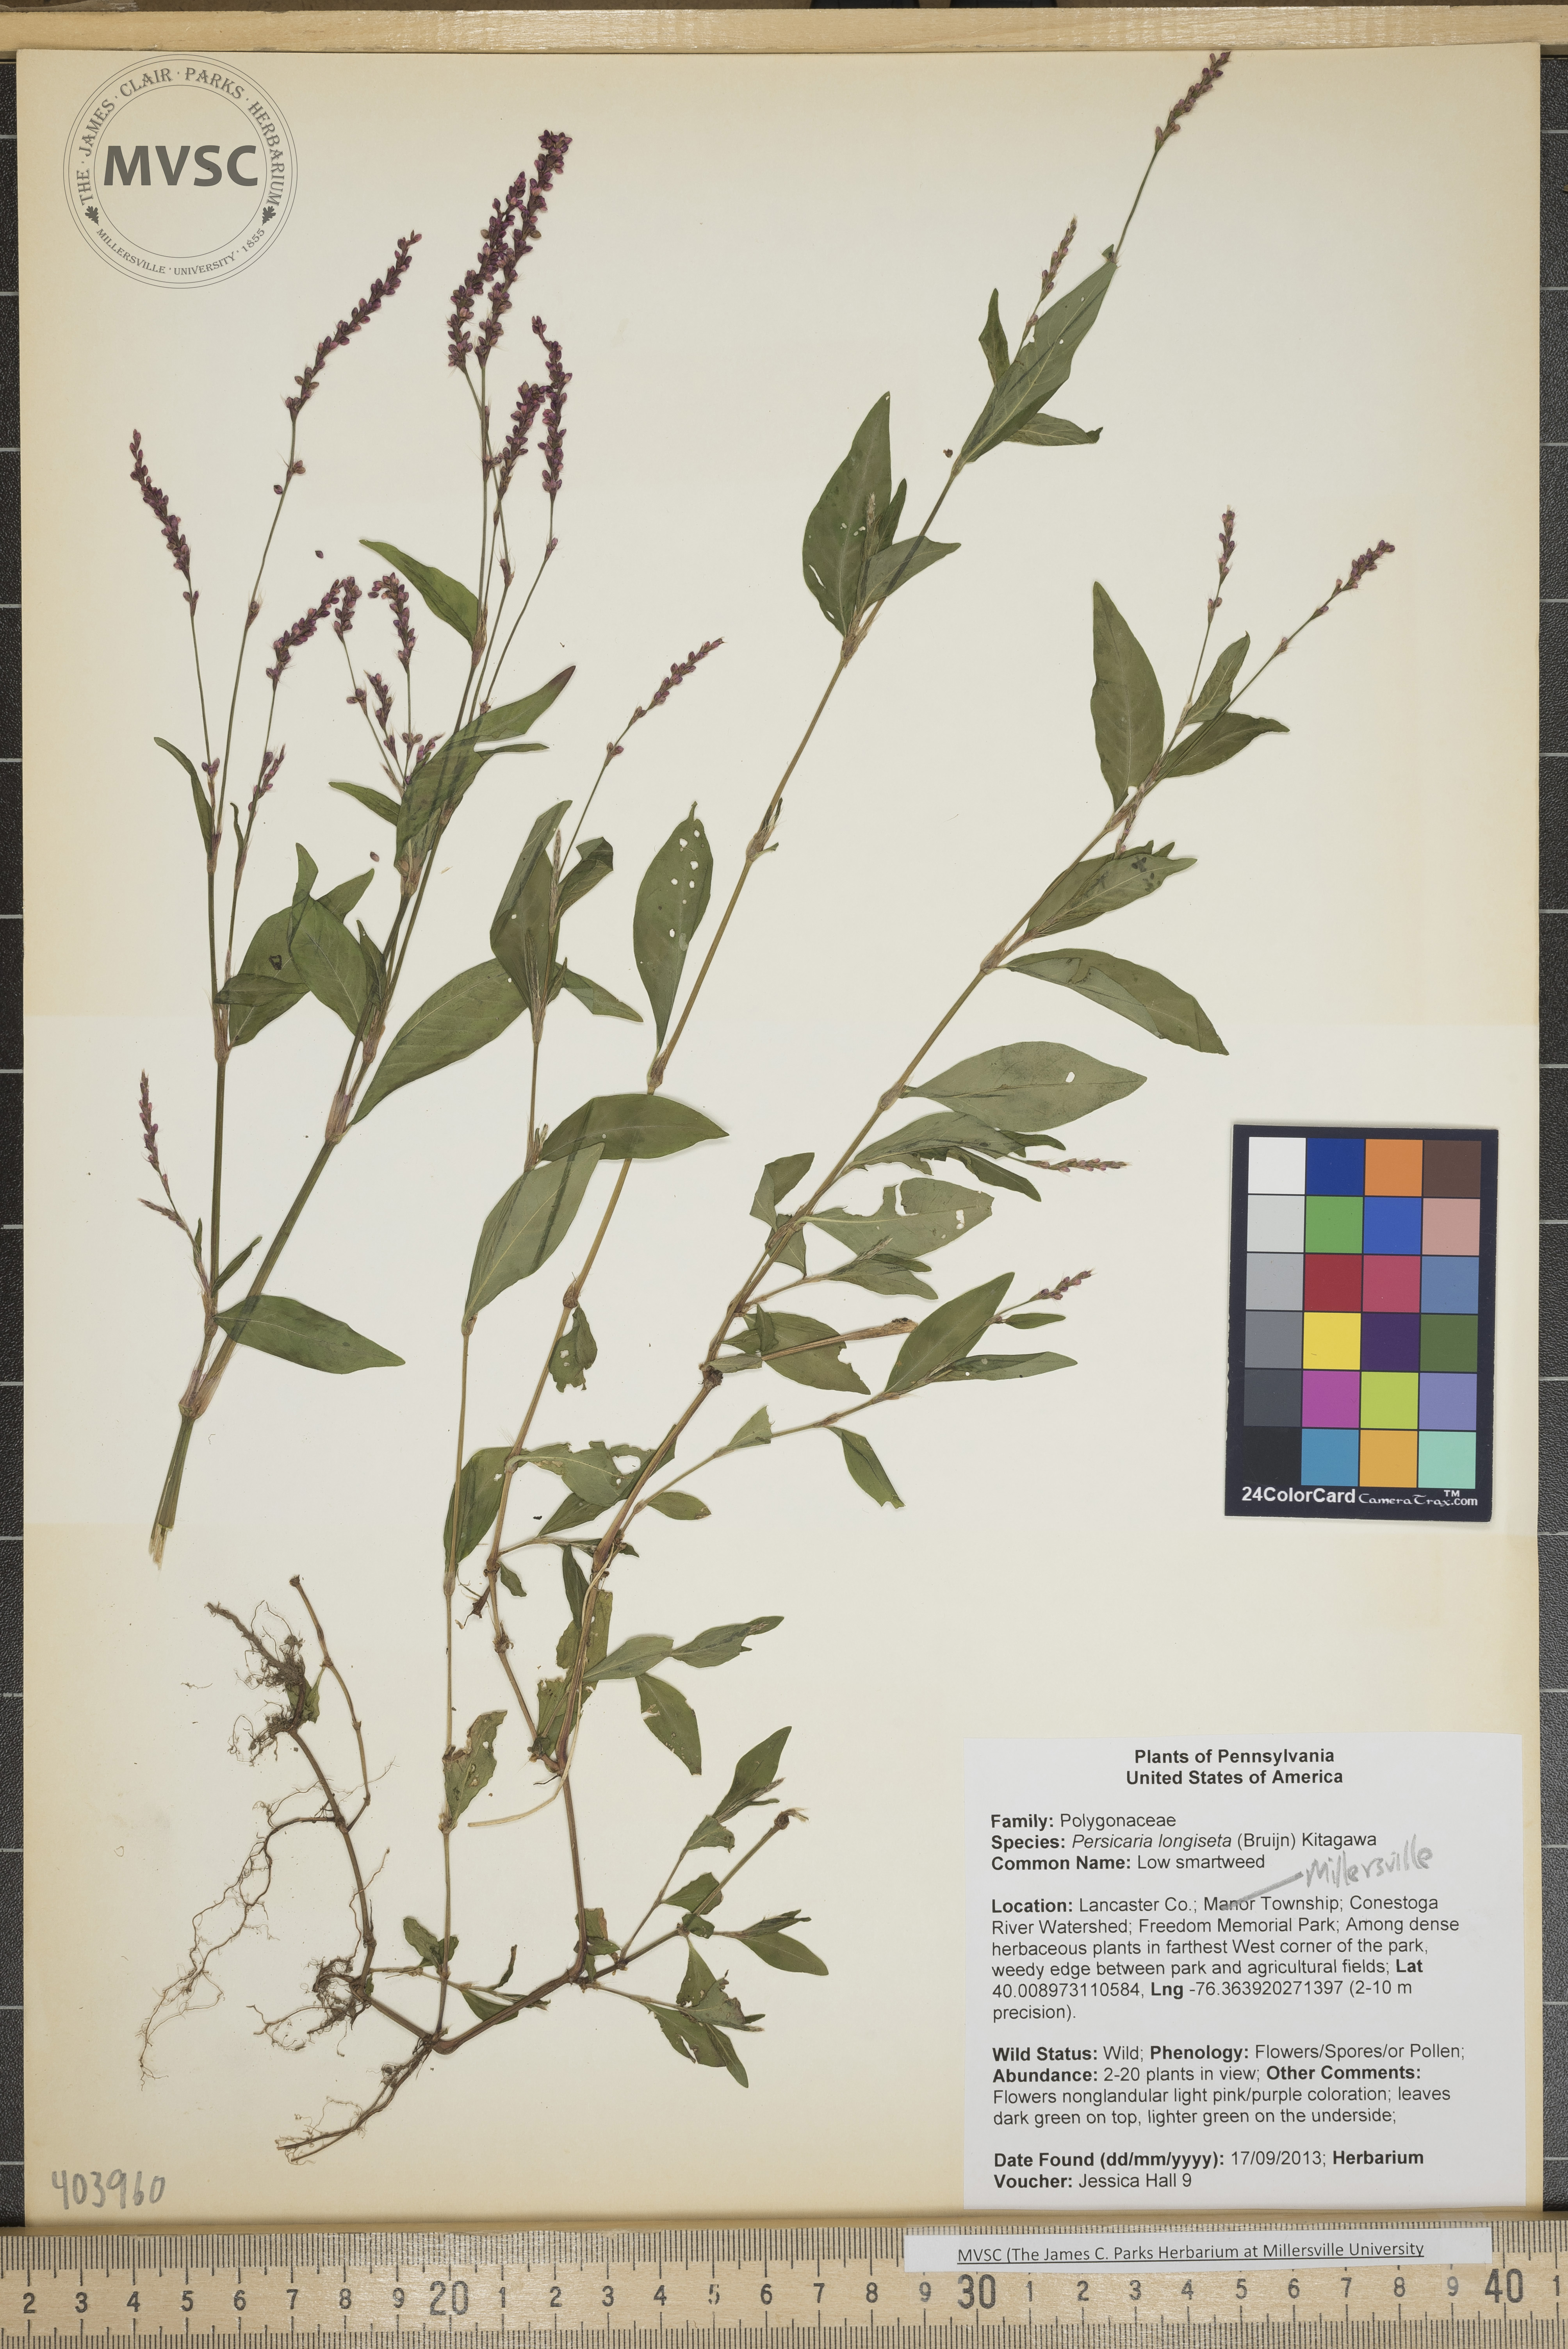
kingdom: Plantae
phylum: Tracheophyta
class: Magnoliopsida
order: Caryophyllales
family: Polygonaceae
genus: Persicaria
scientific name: Persicaria longiseta
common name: Low smartweed
